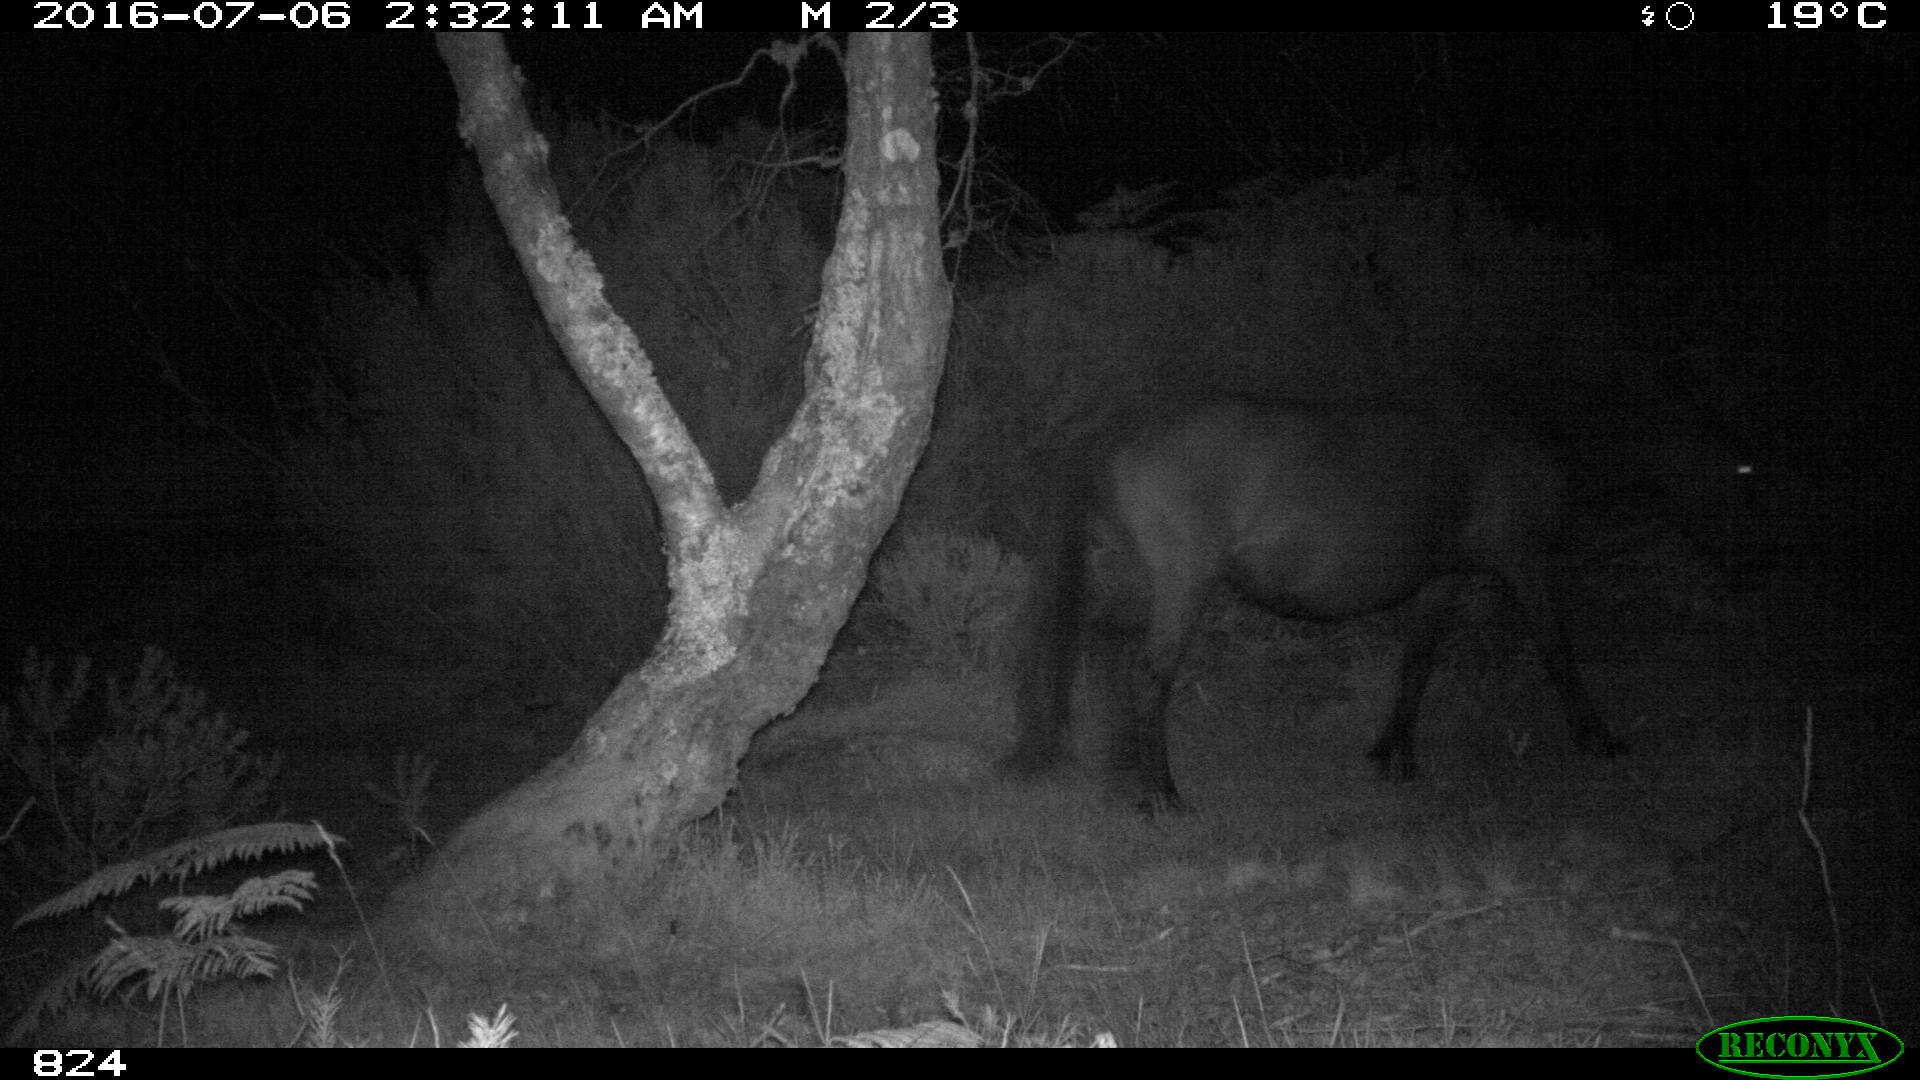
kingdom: Animalia
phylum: Chordata
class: Mammalia
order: Perissodactyla
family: Equidae
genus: Equus
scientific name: Equus caballus
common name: Horse
